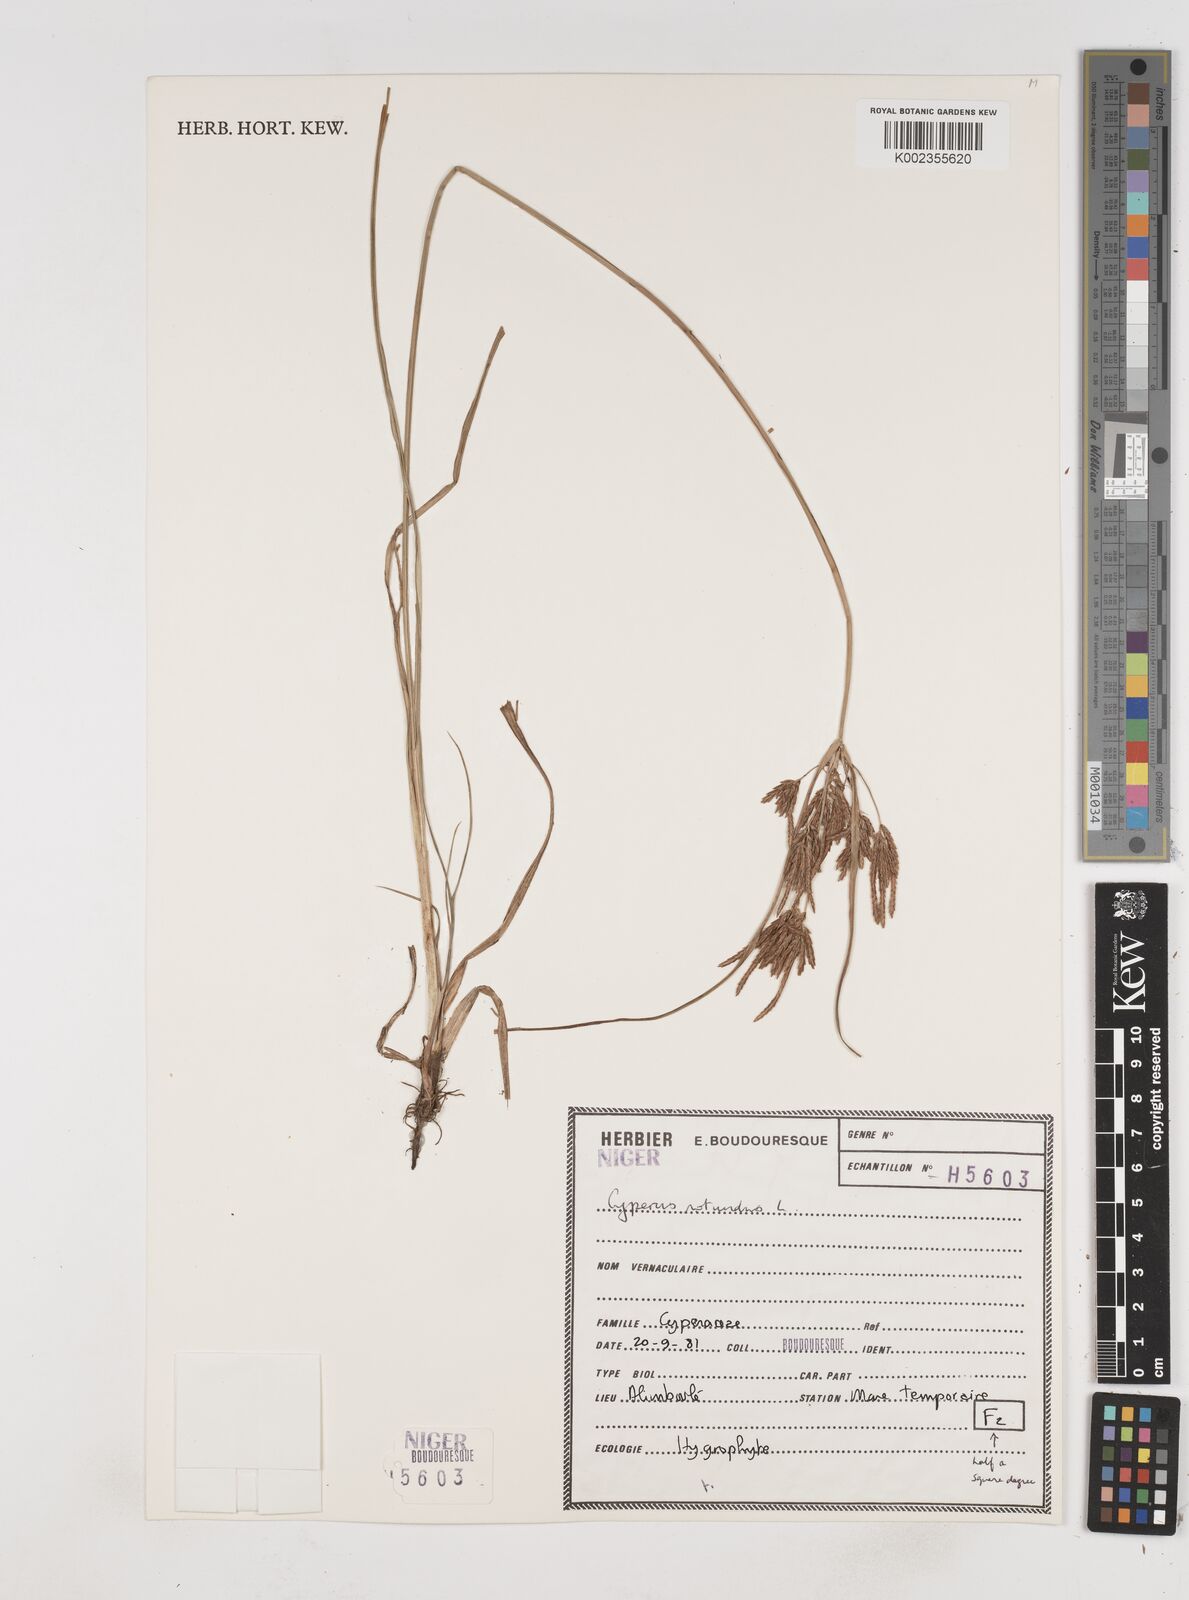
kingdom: Plantae
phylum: Tracheophyta
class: Liliopsida
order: Poales
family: Cyperaceae
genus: Cyperus
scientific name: Cyperus rotundus
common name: Nutgrass
